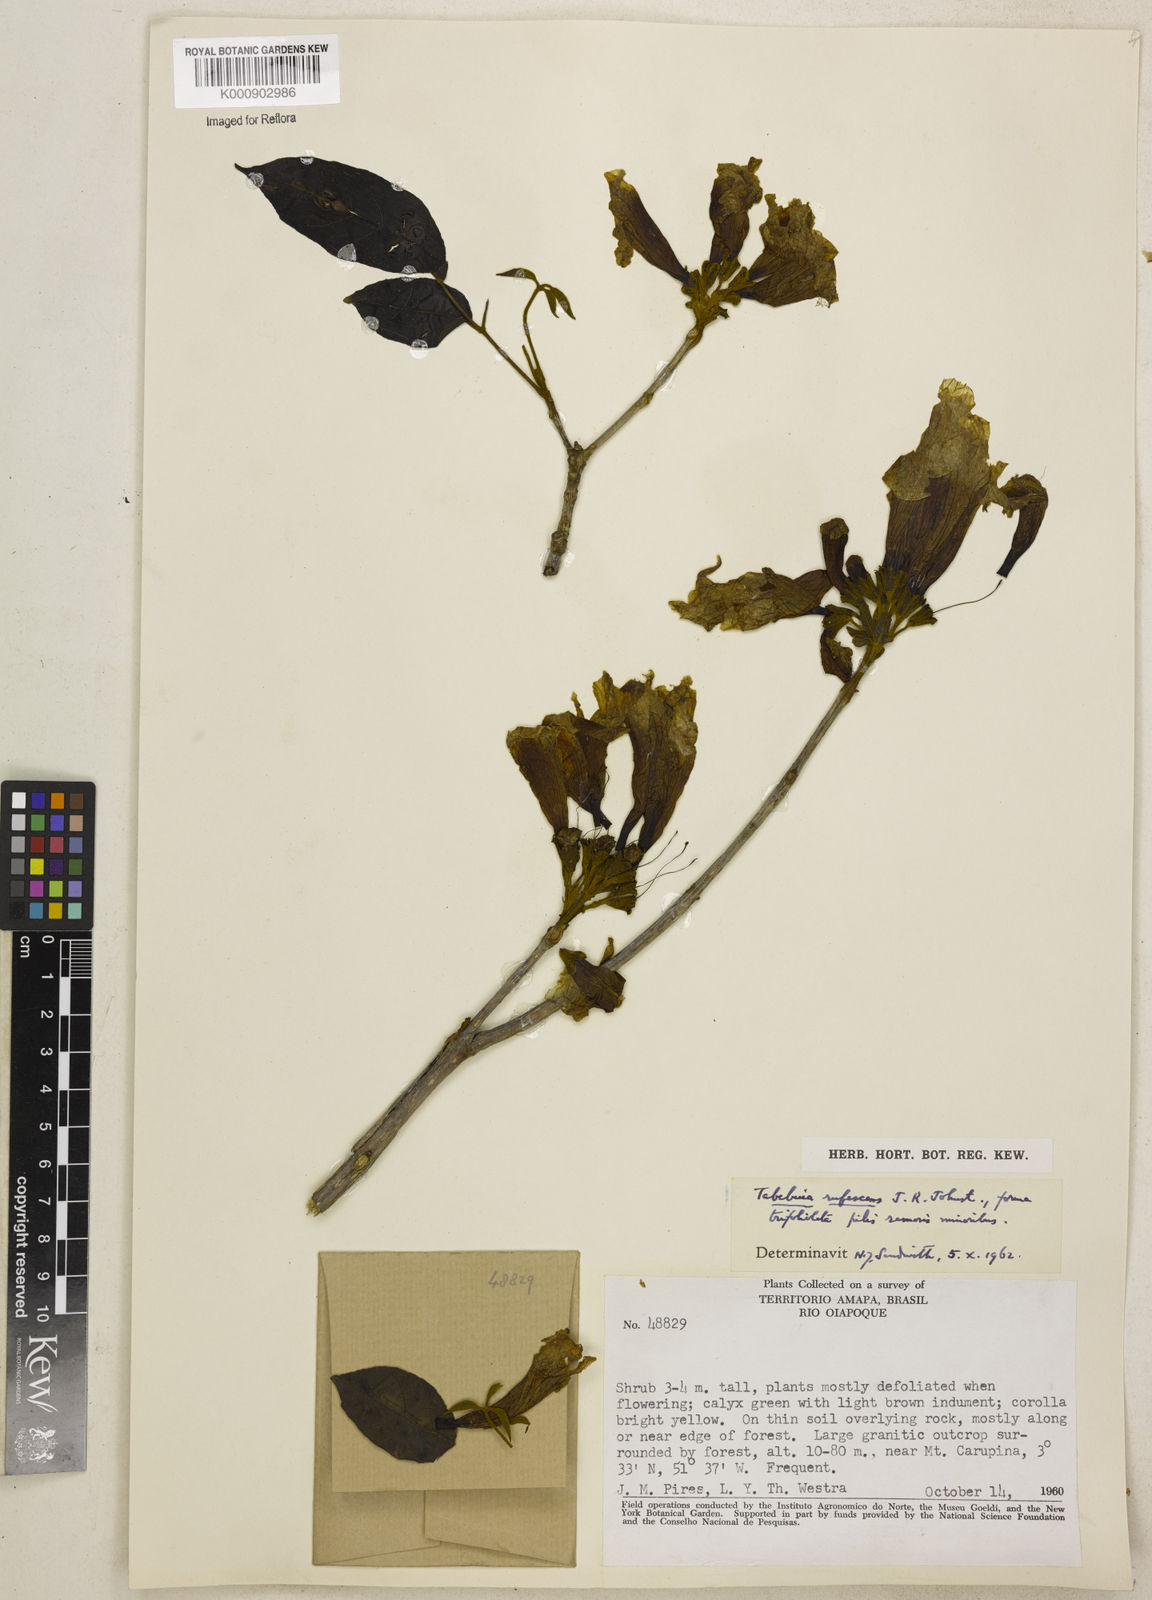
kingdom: Plantae
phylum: Tracheophyta
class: Magnoliopsida
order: Lamiales
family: Bignoniaceae
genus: Handroanthus
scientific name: Handroanthus chrysanthus
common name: Trumpet trees
